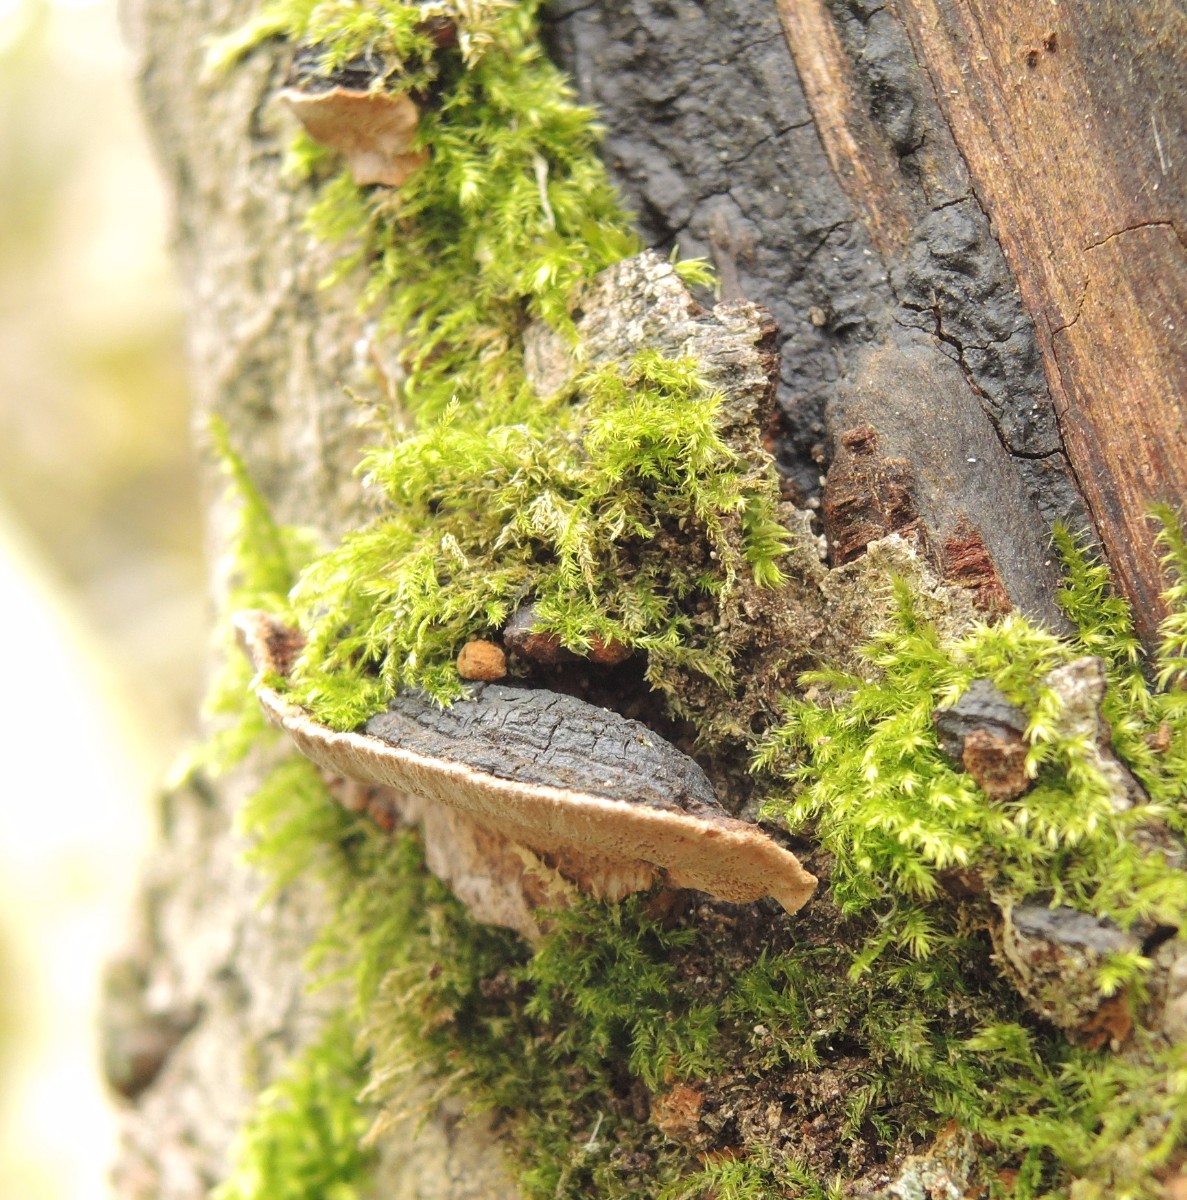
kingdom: Fungi
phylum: Basidiomycota
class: Agaricomycetes
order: Hymenochaetales
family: Hymenochaetaceae
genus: Phellinopsis
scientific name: Phellinopsis conchata
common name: pile-ildporesvamp
